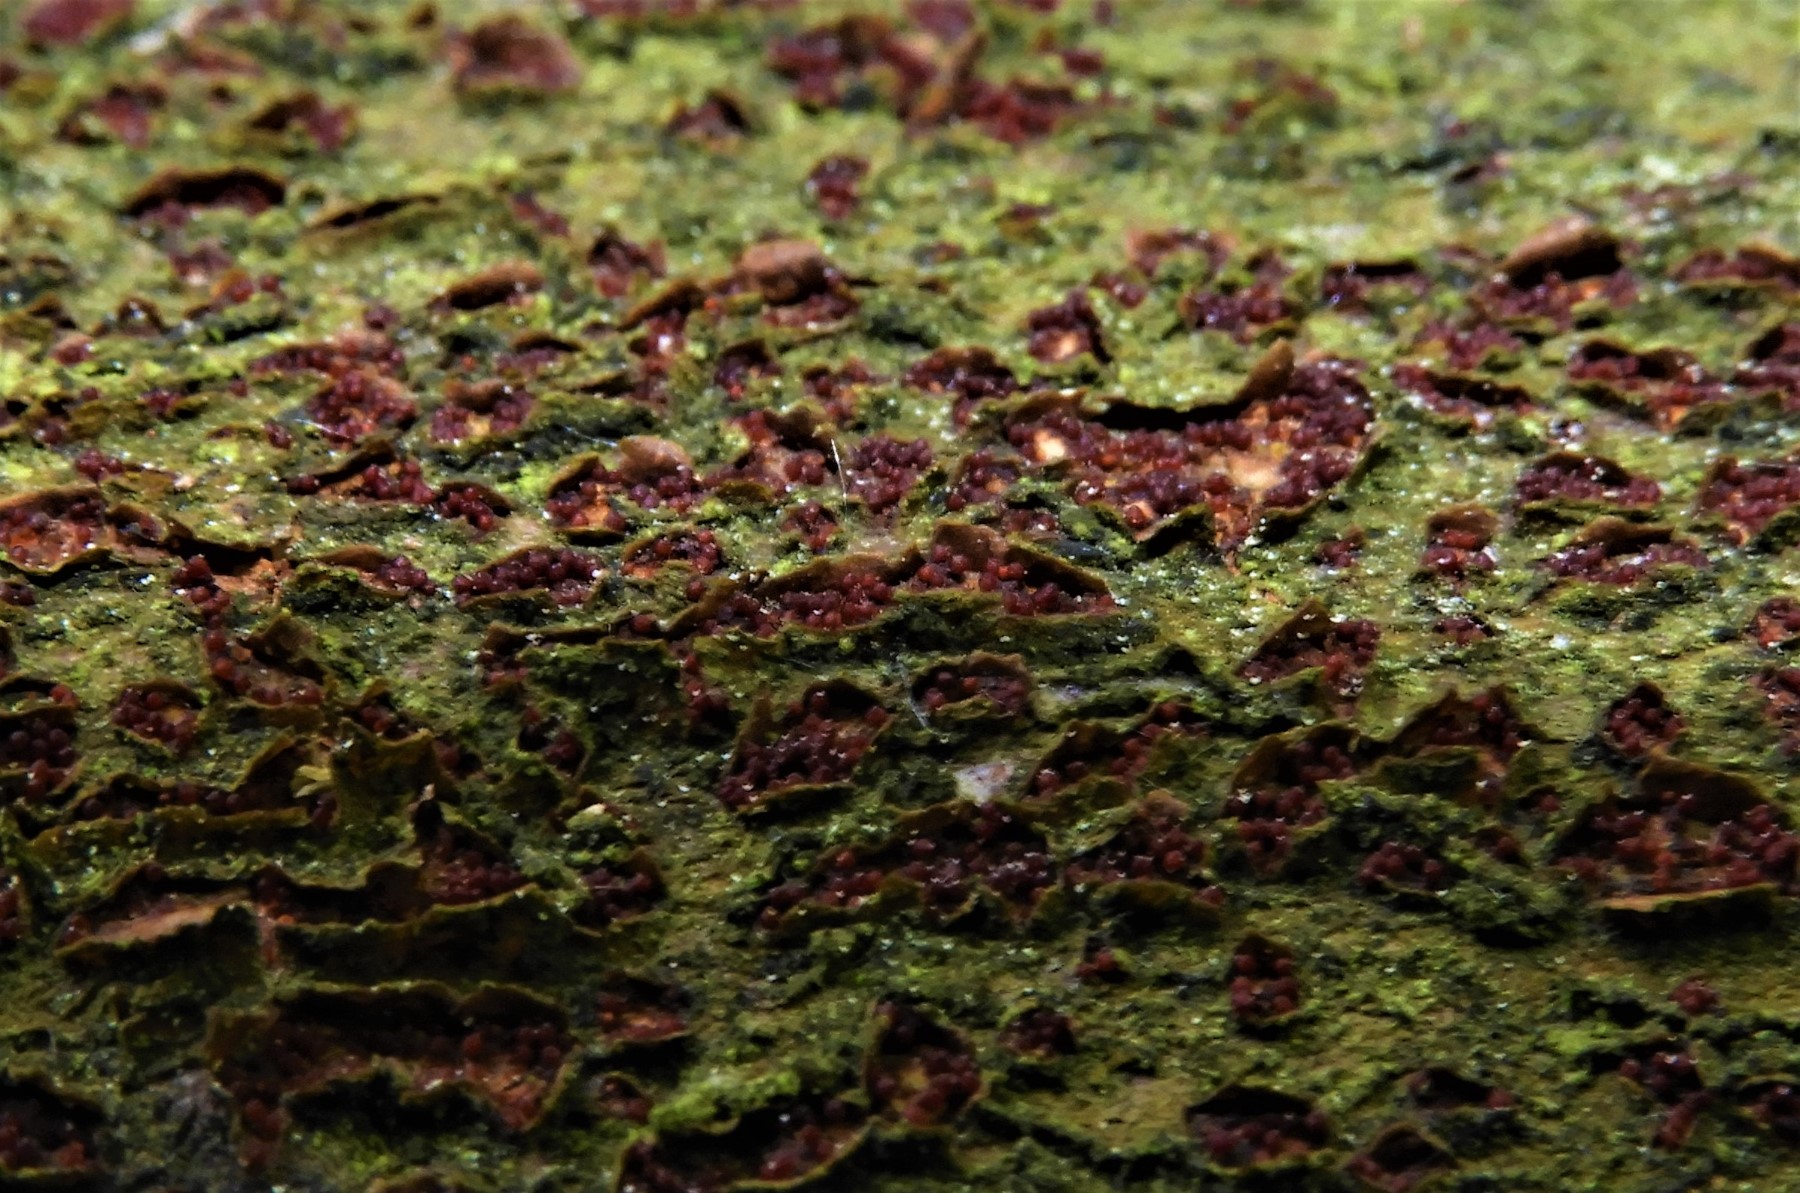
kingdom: Fungi
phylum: Ascomycota
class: Sordariomycetes
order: Hypocreales
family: Nectriaceae
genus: Neonectria
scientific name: Neonectria coccinea
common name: bøgebark-cinnobersvamp
